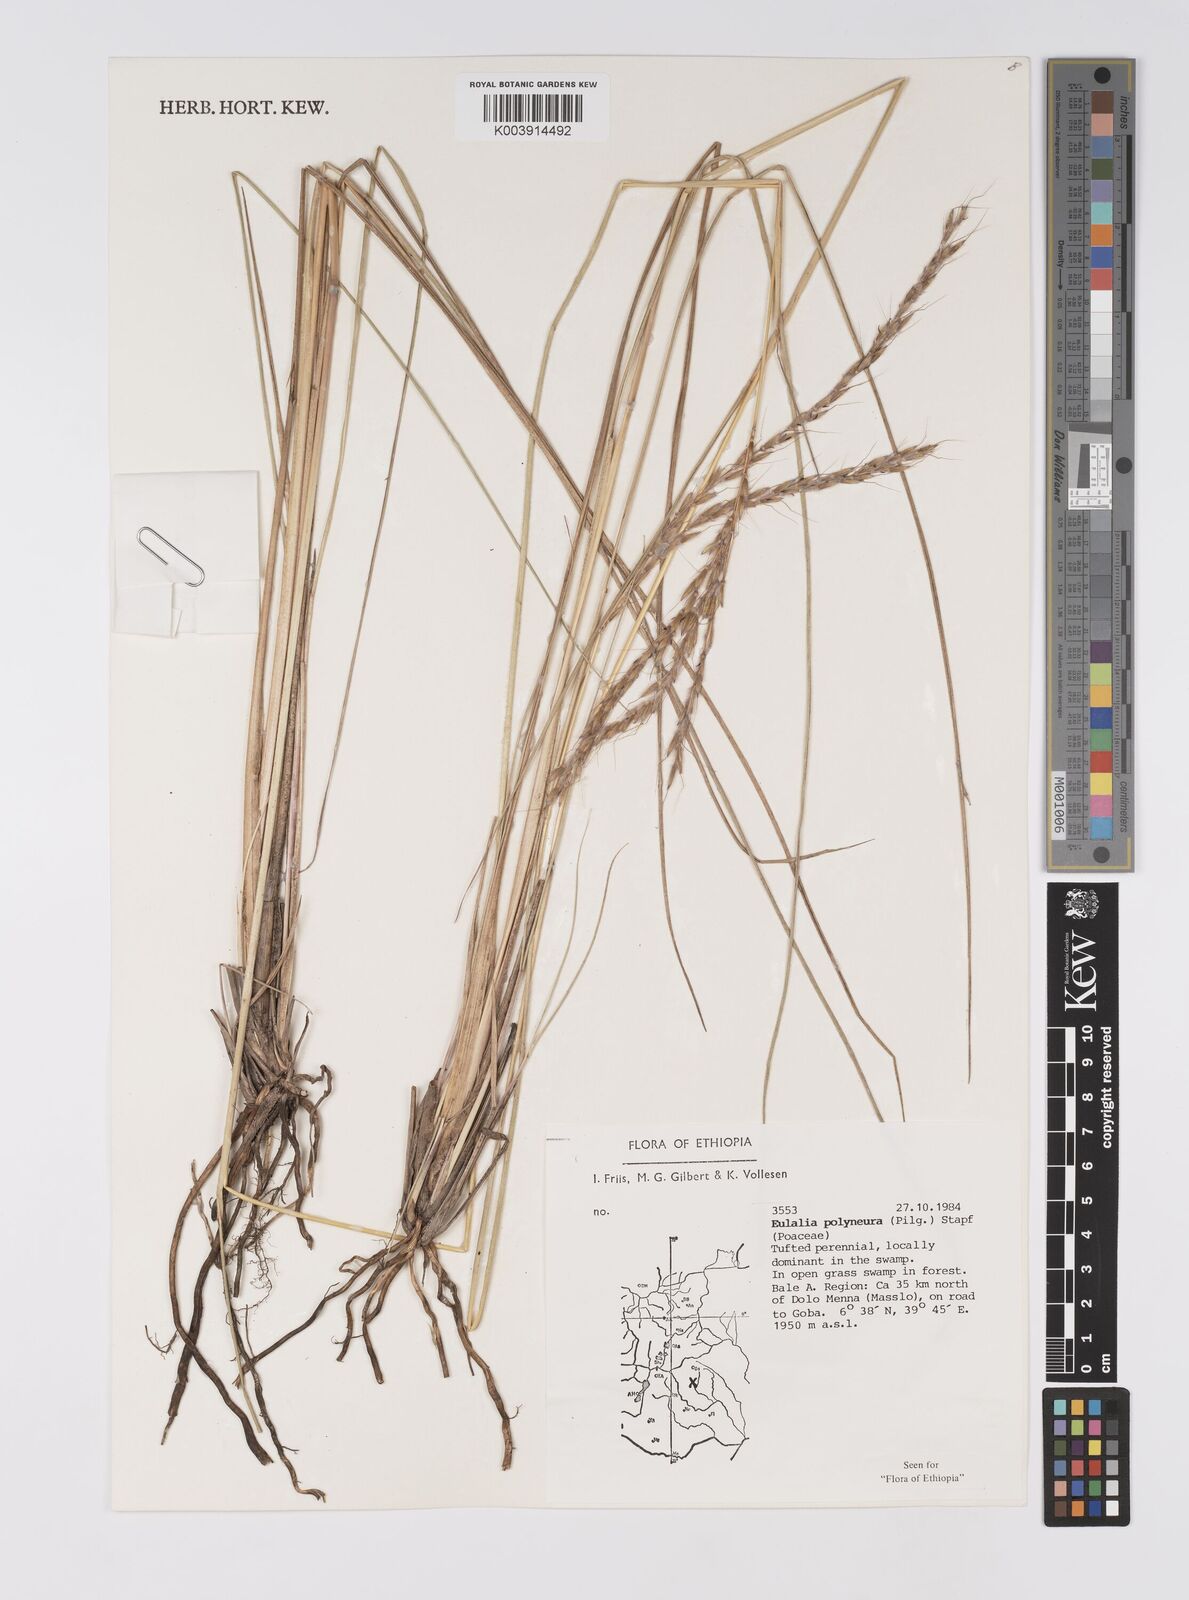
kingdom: Plantae
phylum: Tracheophyta
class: Liliopsida
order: Poales
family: Poaceae
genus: Eulalia
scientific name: Eulalia polyneura
